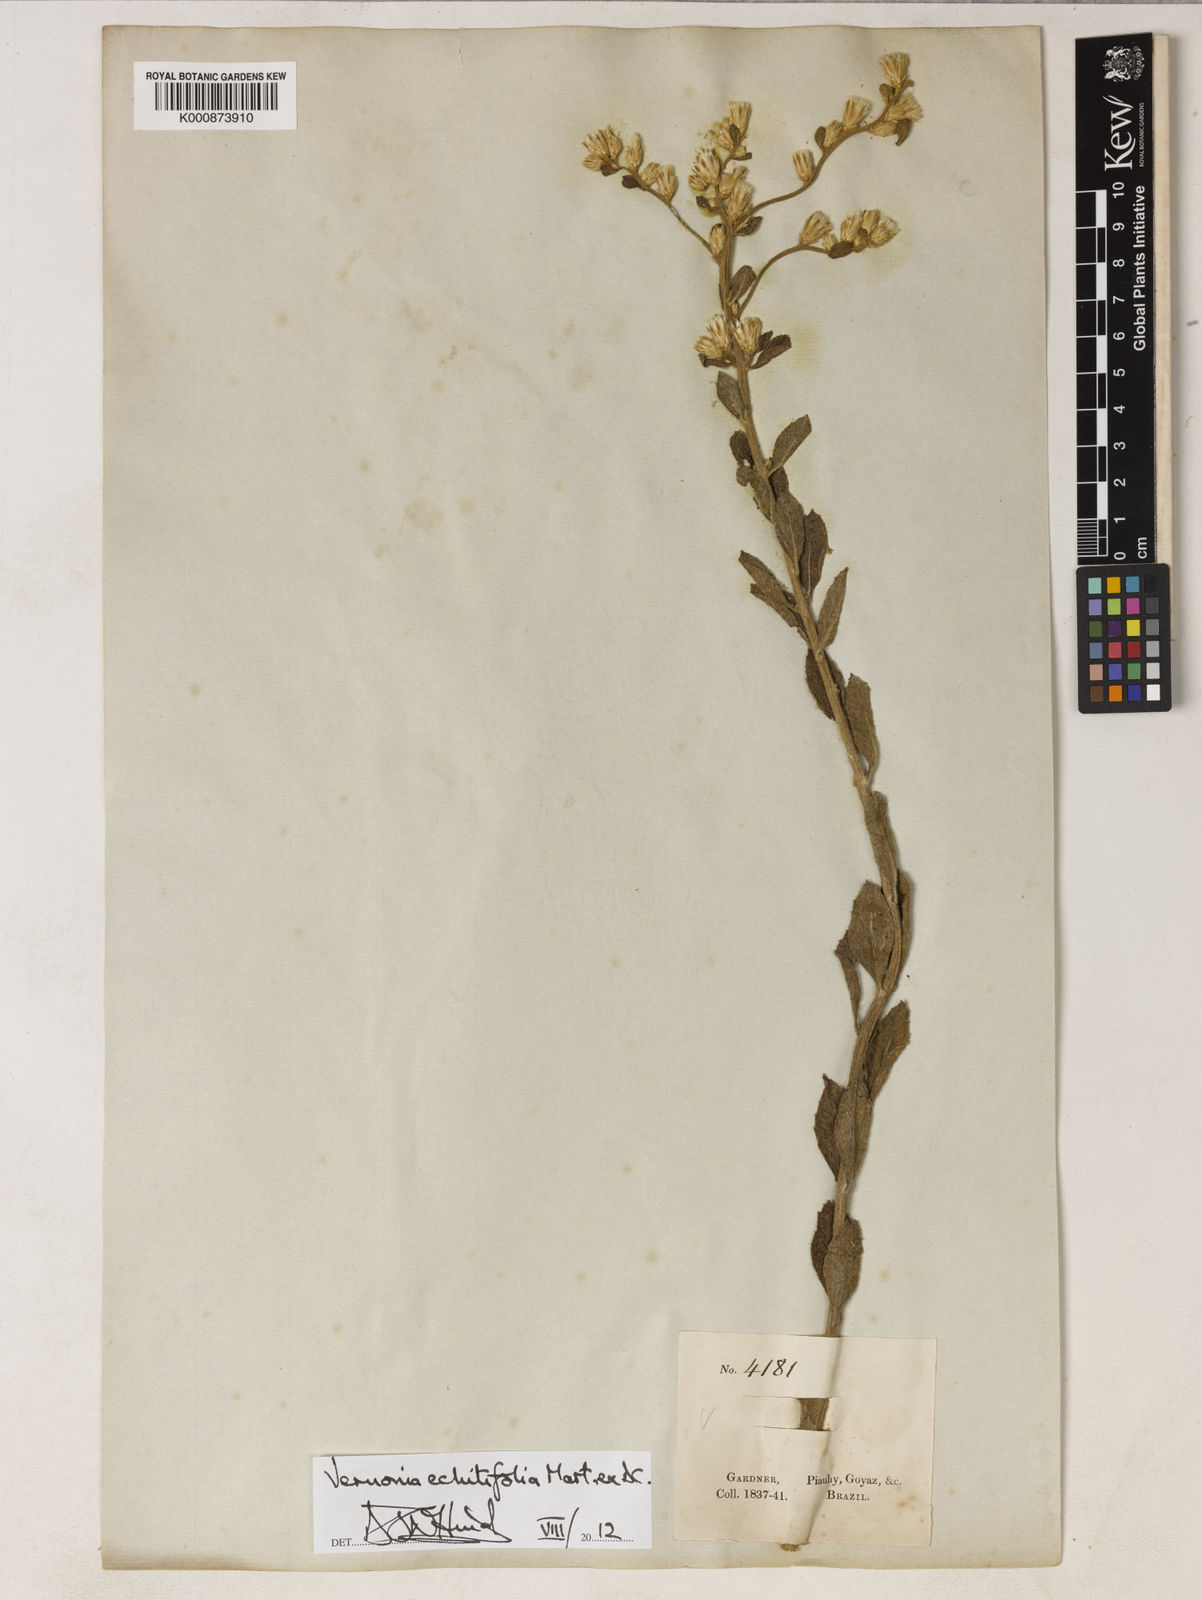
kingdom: Plantae
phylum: Tracheophyta
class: Magnoliopsida
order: Asterales
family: Asteraceae
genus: Acilepidopsis
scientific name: Acilepidopsis echitifolia
